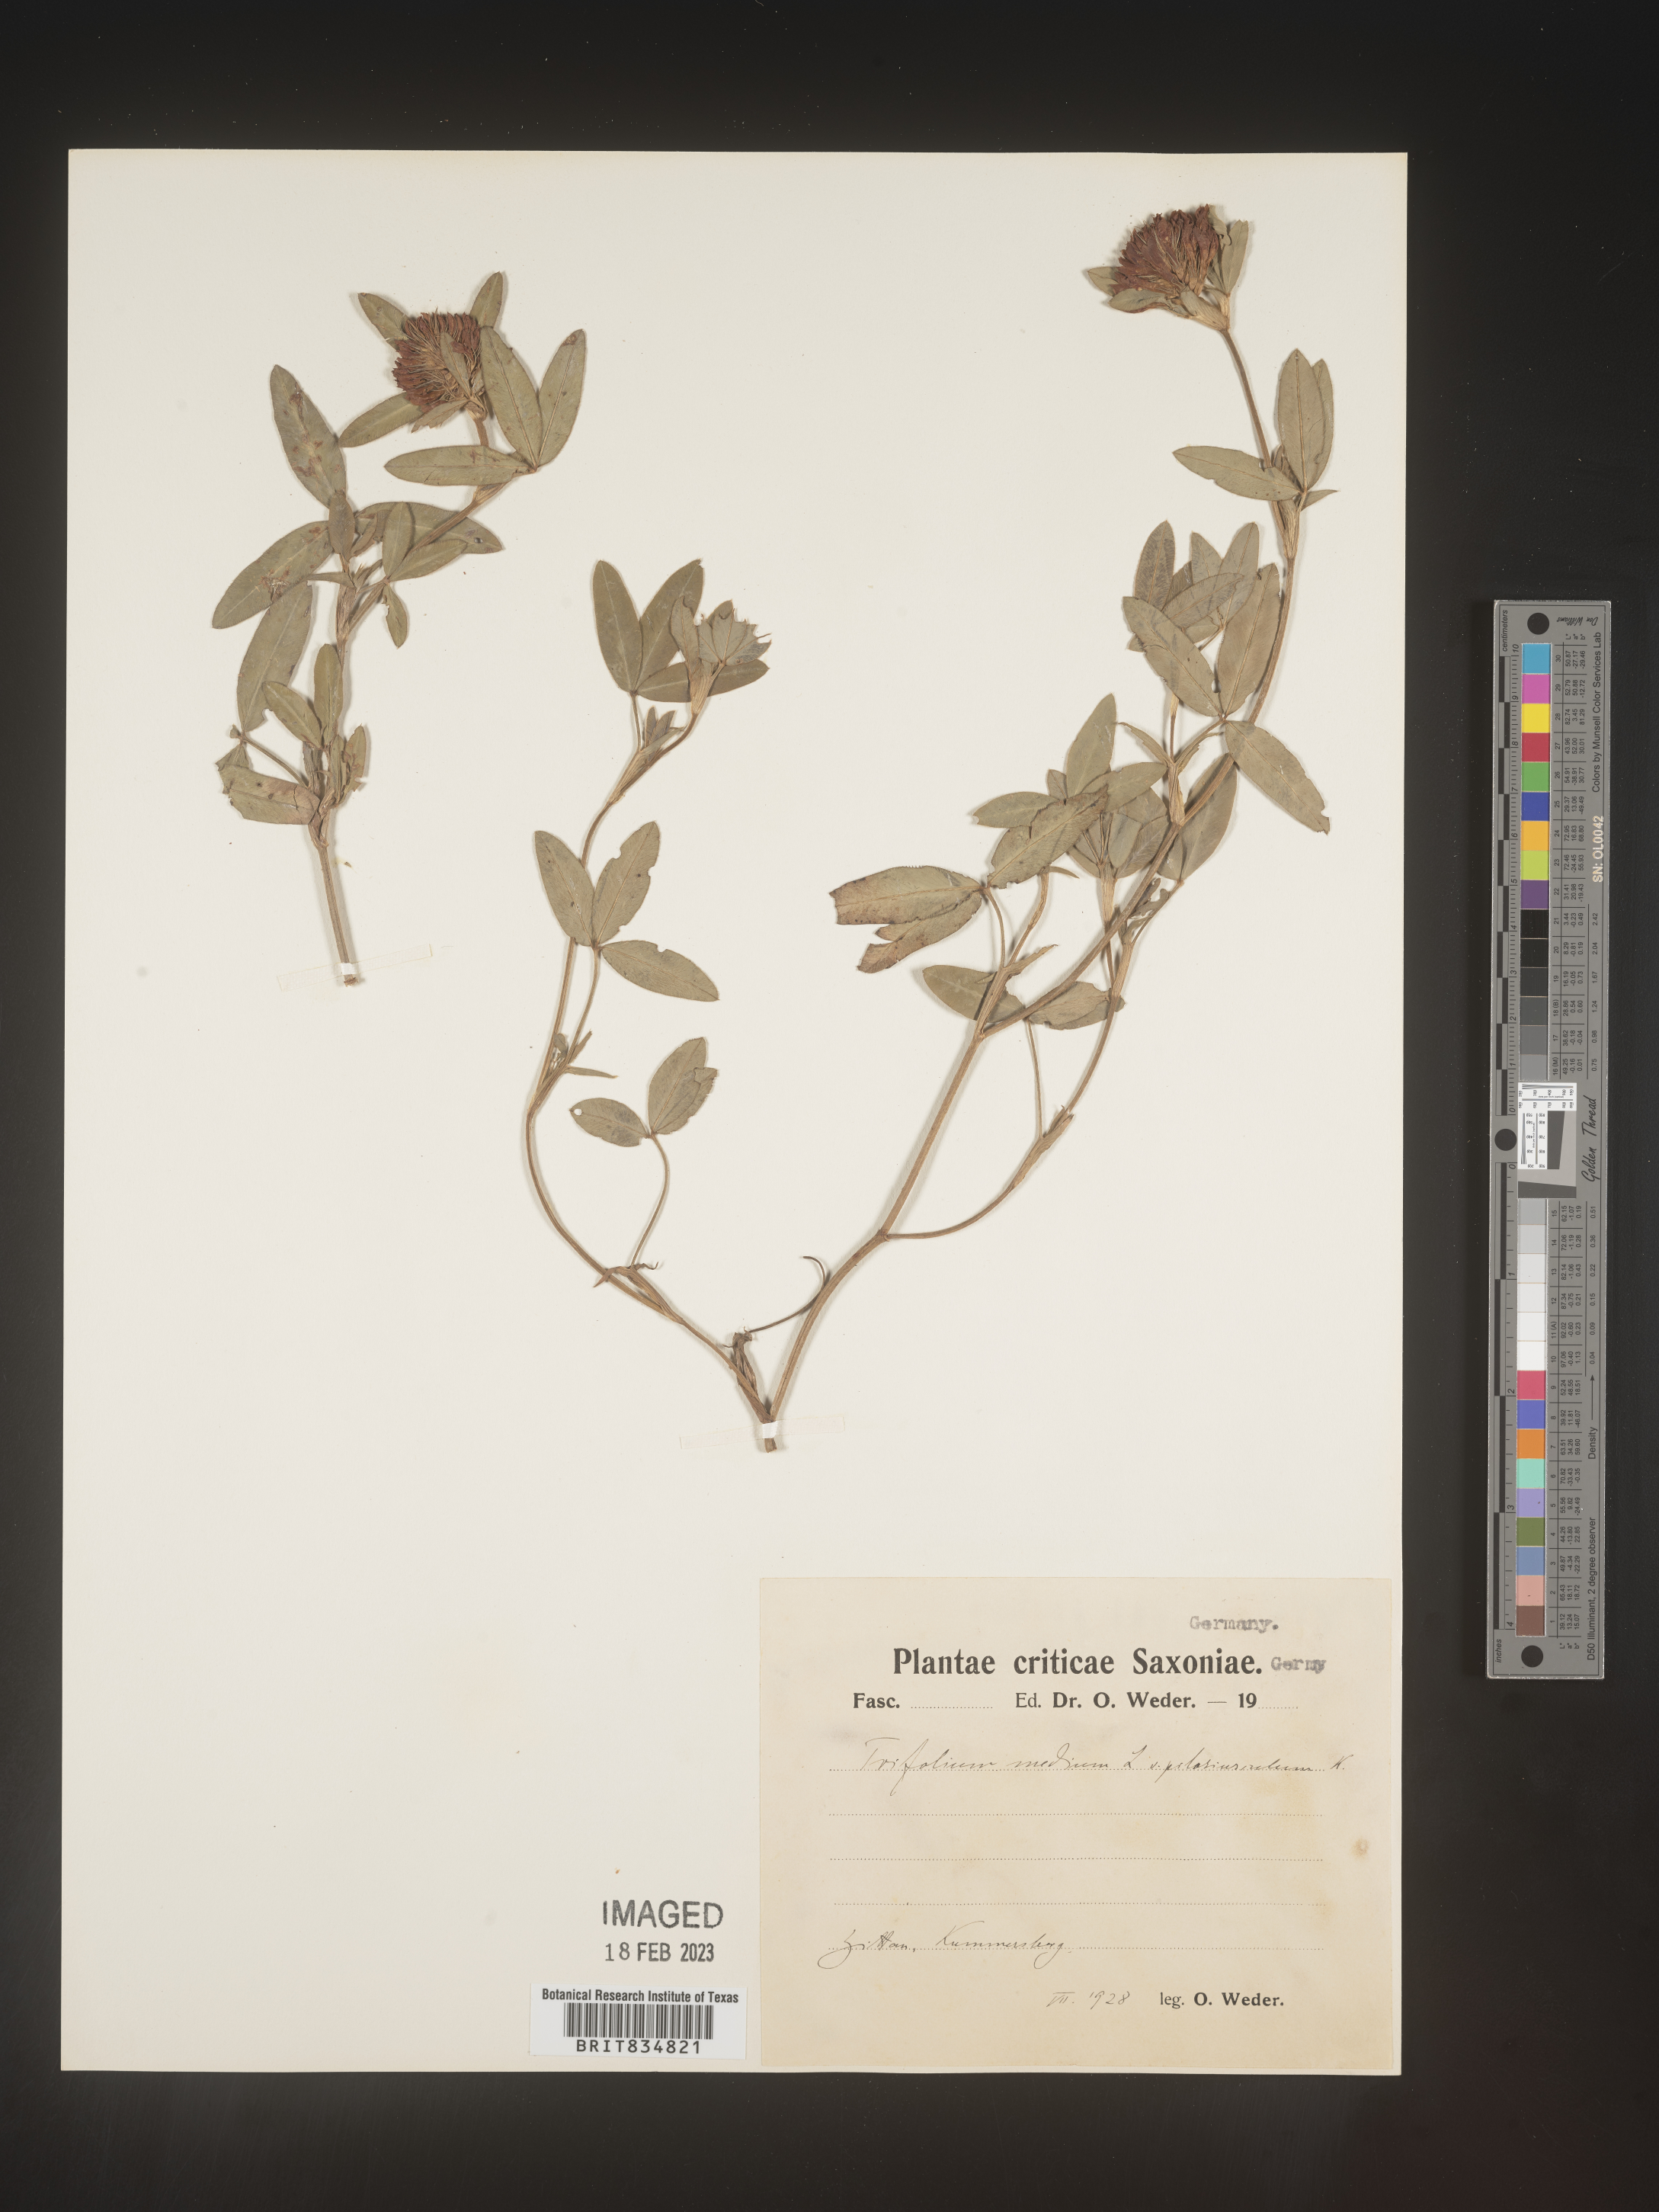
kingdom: Plantae
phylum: Tracheophyta
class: Magnoliopsida
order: Fabales
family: Fabaceae
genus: Trifolium
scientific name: Trifolium
